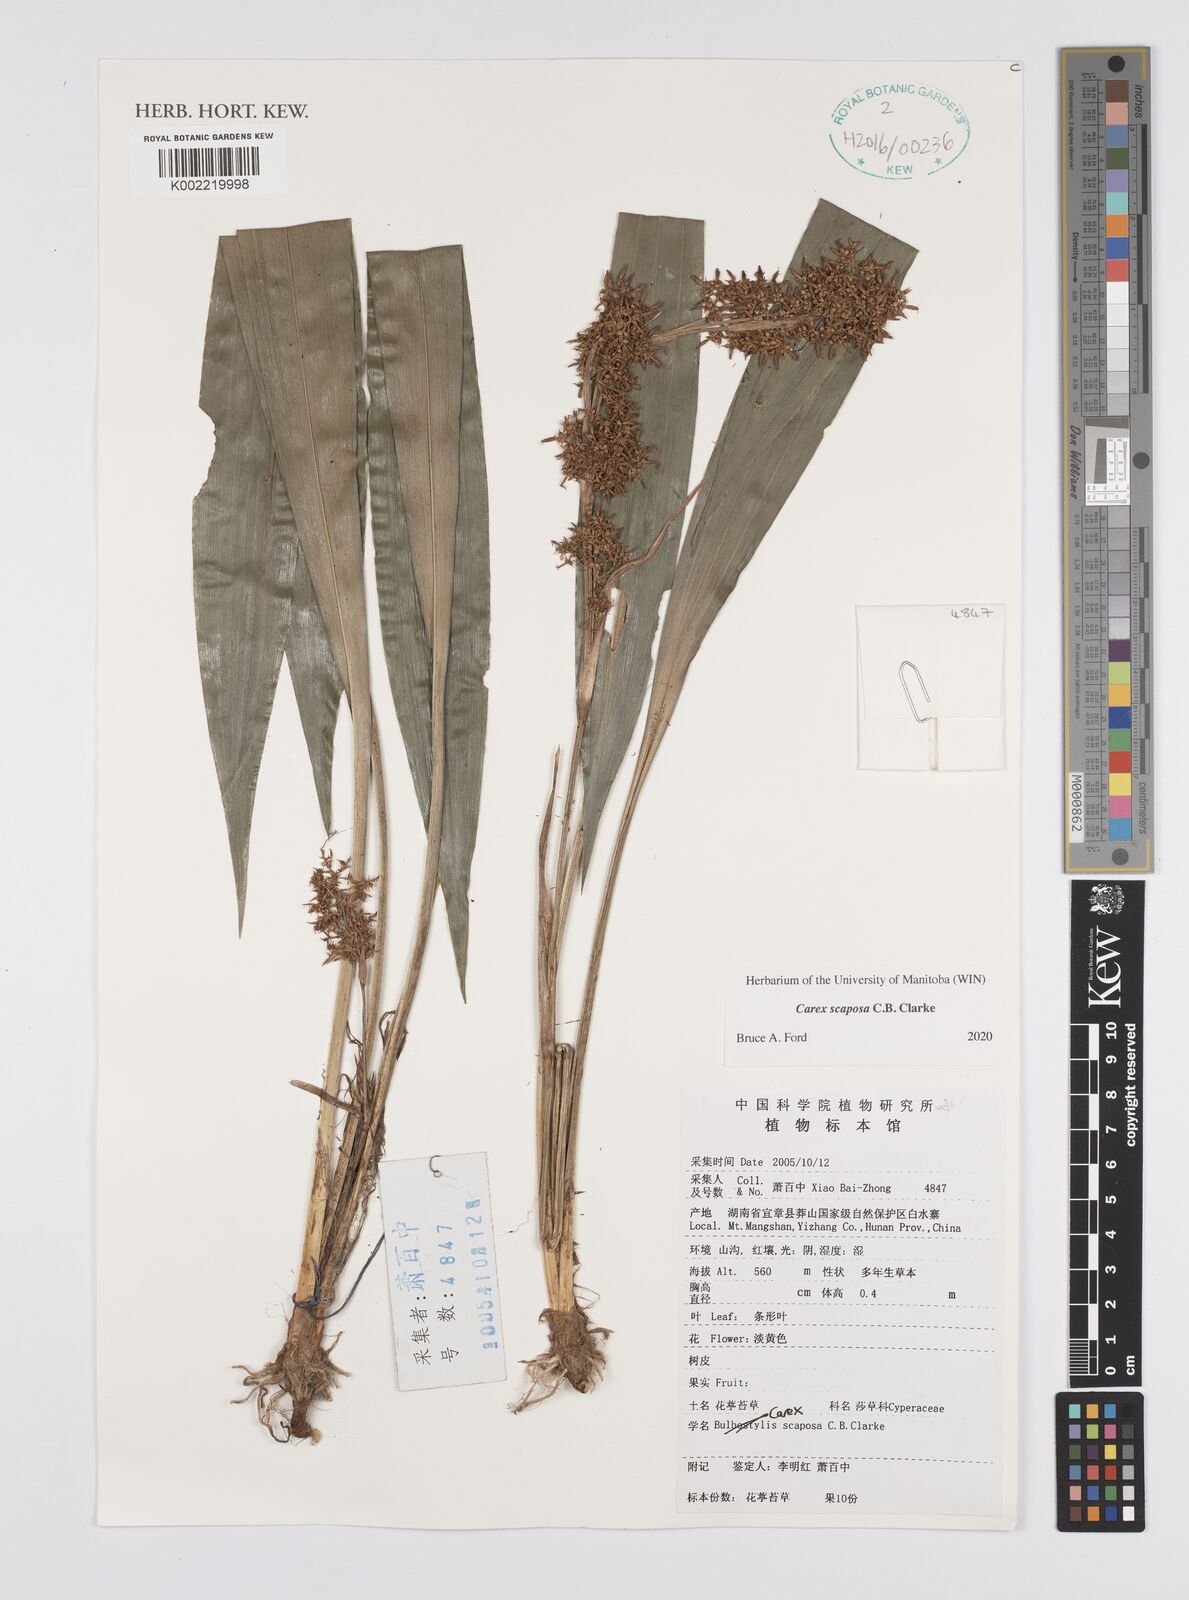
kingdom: Plantae
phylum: Tracheophyta
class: Liliopsida
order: Poales
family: Cyperaceae
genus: Carex
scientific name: Carex scaposa
